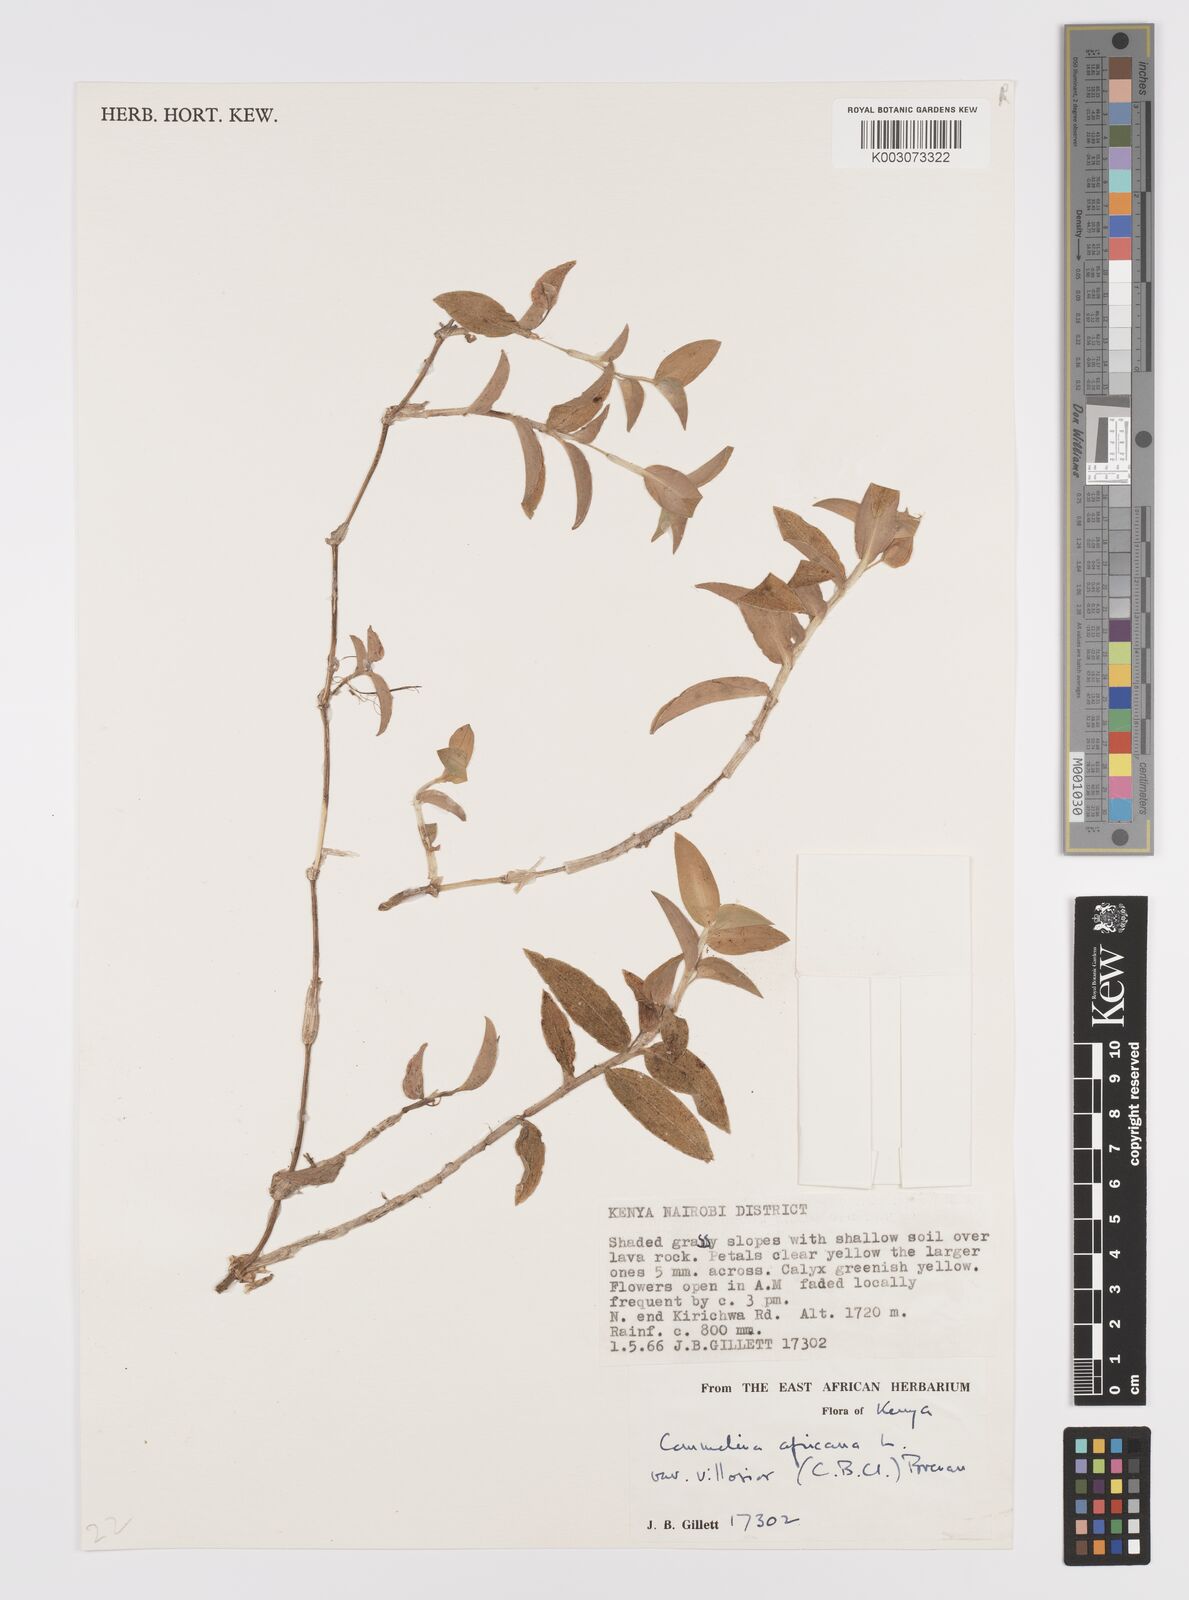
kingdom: Plantae
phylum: Tracheophyta
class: Liliopsida
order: Commelinales
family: Commelinaceae
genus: Commelina
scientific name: Commelina africana
